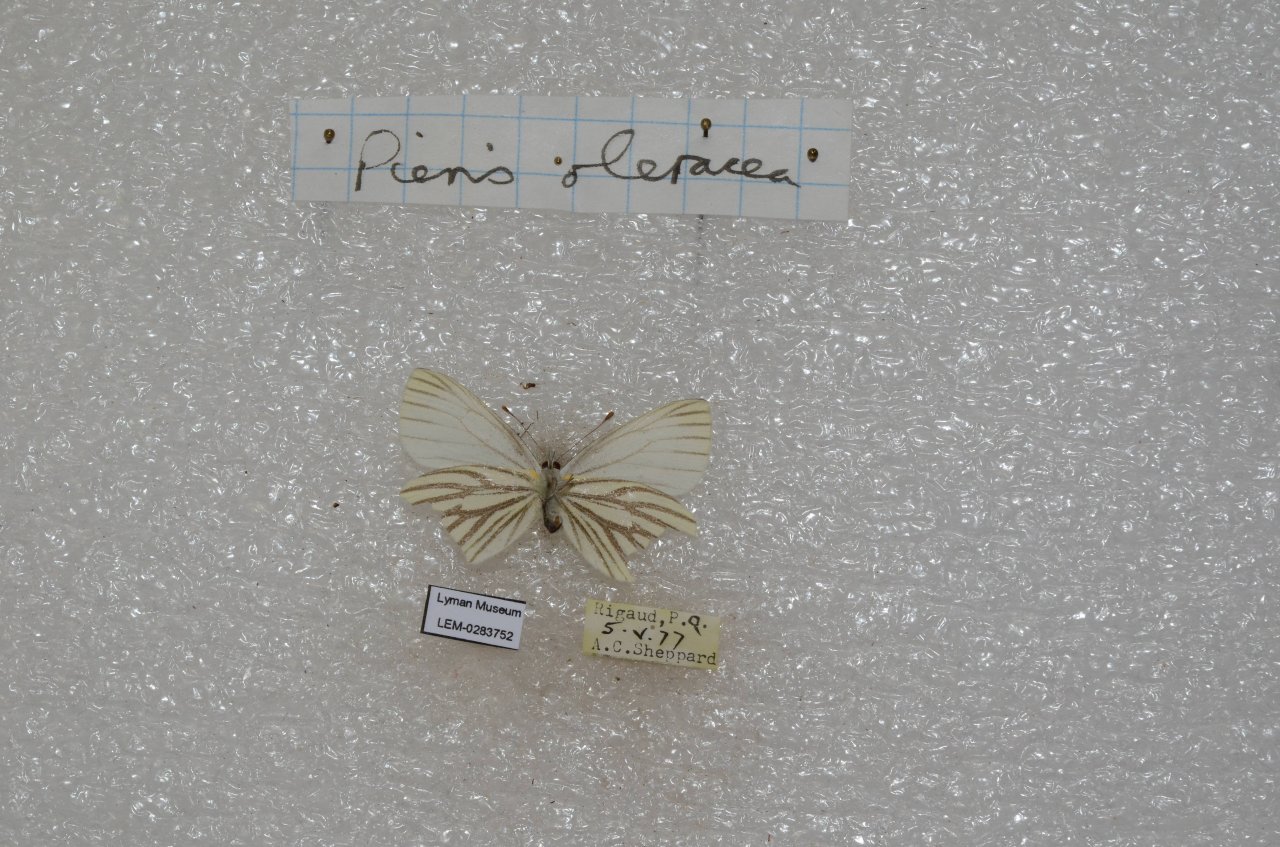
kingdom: Animalia
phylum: Arthropoda
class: Insecta
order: Lepidoptera
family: Pieridae
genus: Pieris
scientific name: Pieris oleracea
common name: Mustard White
